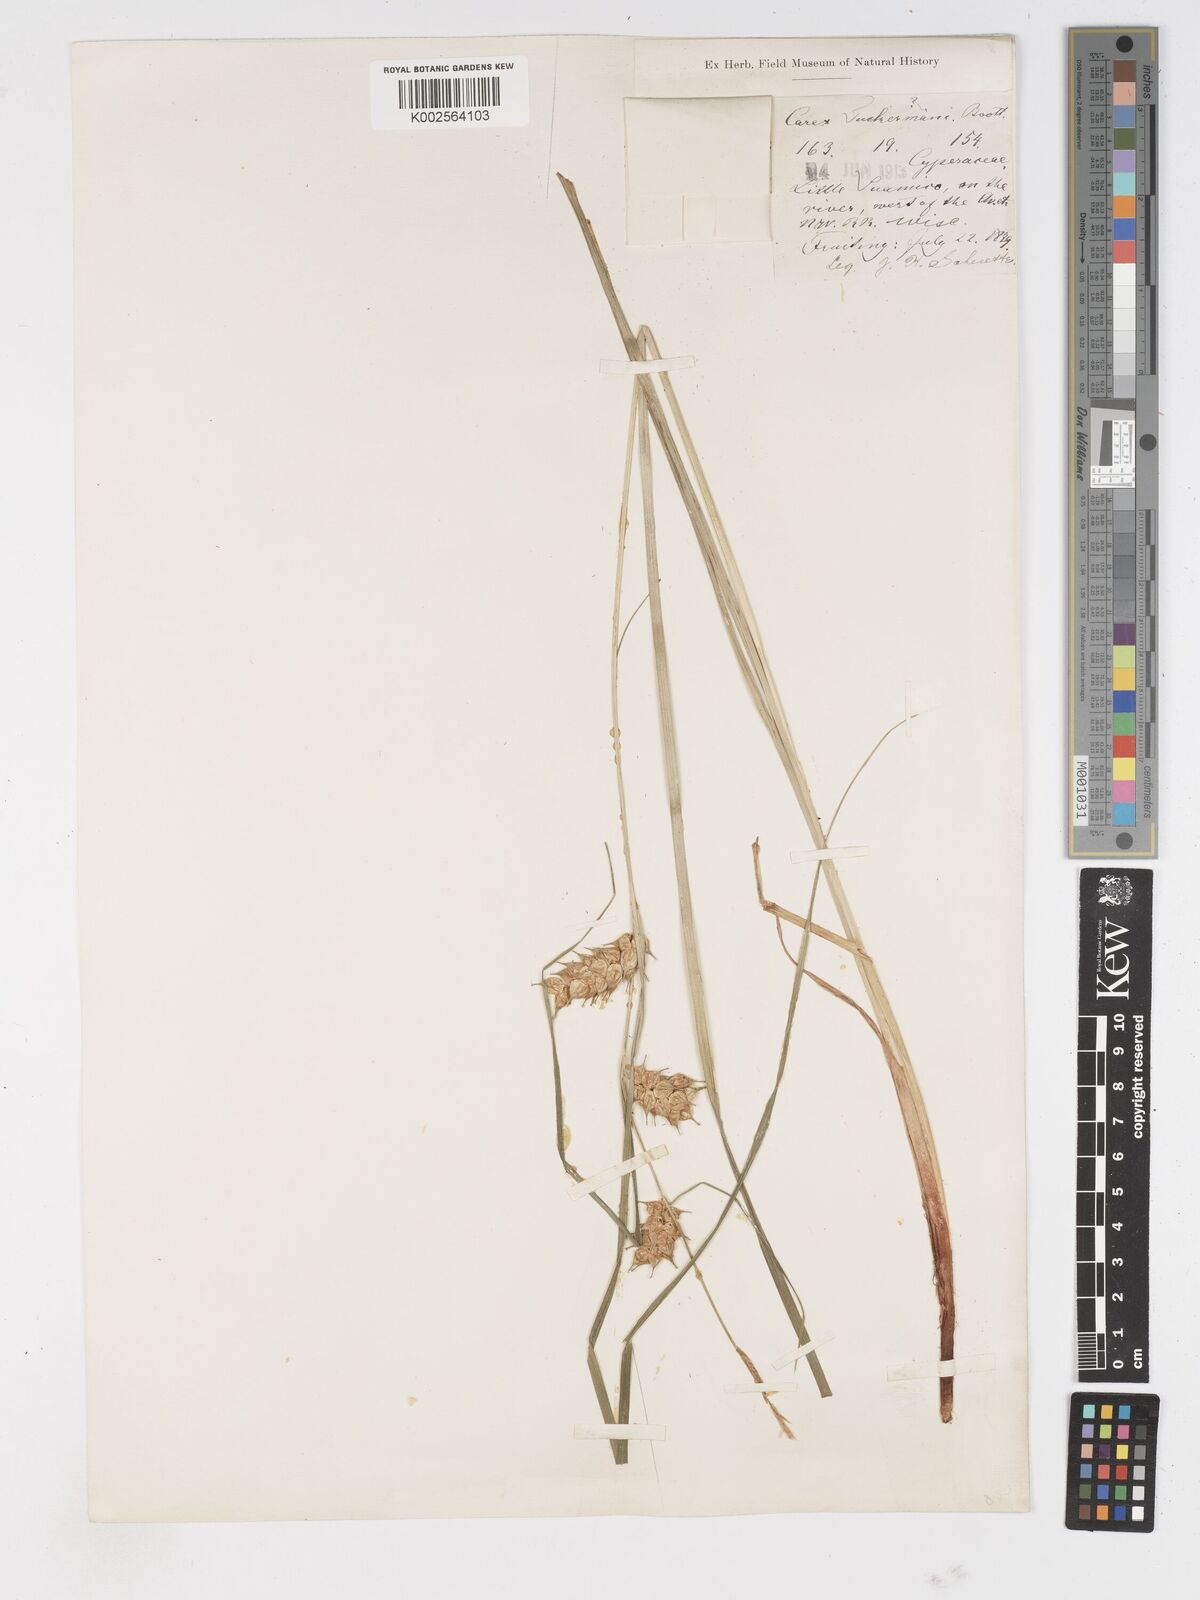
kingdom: Plantae
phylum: Tracheophyta
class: Liliopsida
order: Poales
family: Cyperaceae
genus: Carex
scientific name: Carex tuckermanii
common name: Tuckerman's sedge
